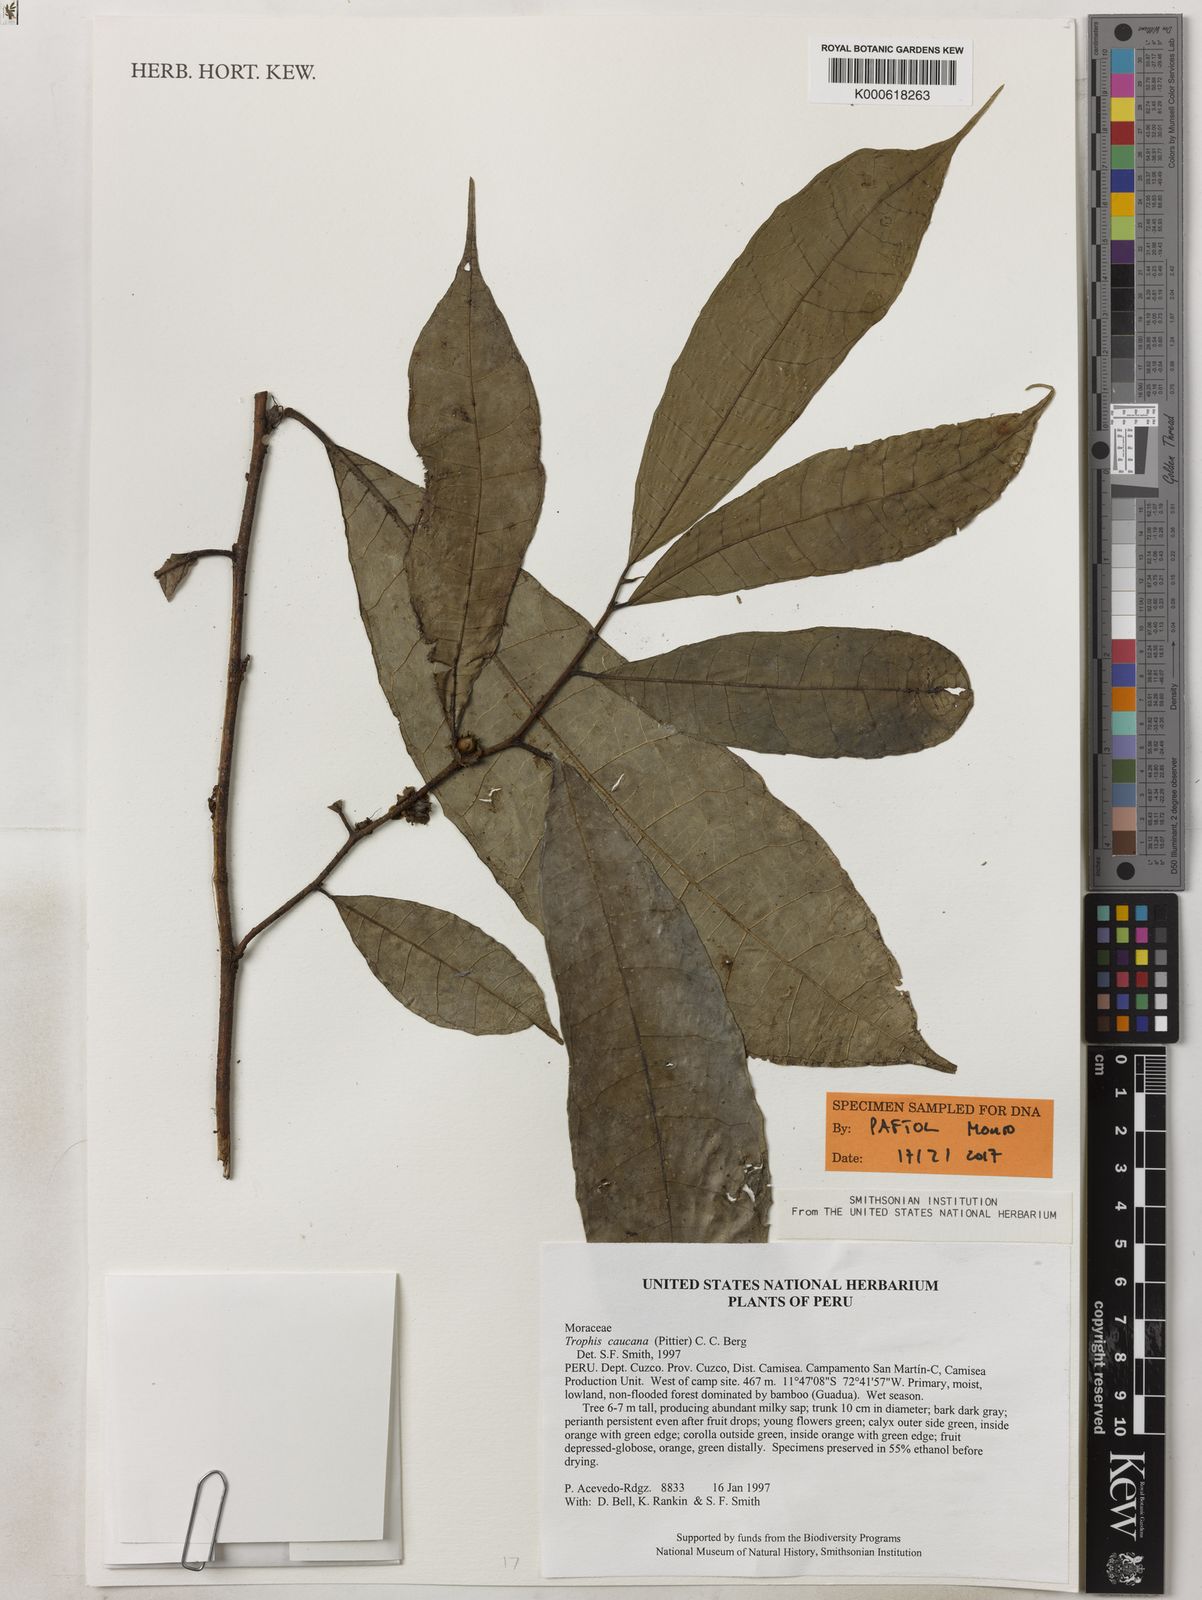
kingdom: Plantae
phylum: Tracheophyta
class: Magnoliopsida
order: Rosales
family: Moraceae
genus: Olmedia
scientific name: Olmedia aspera
